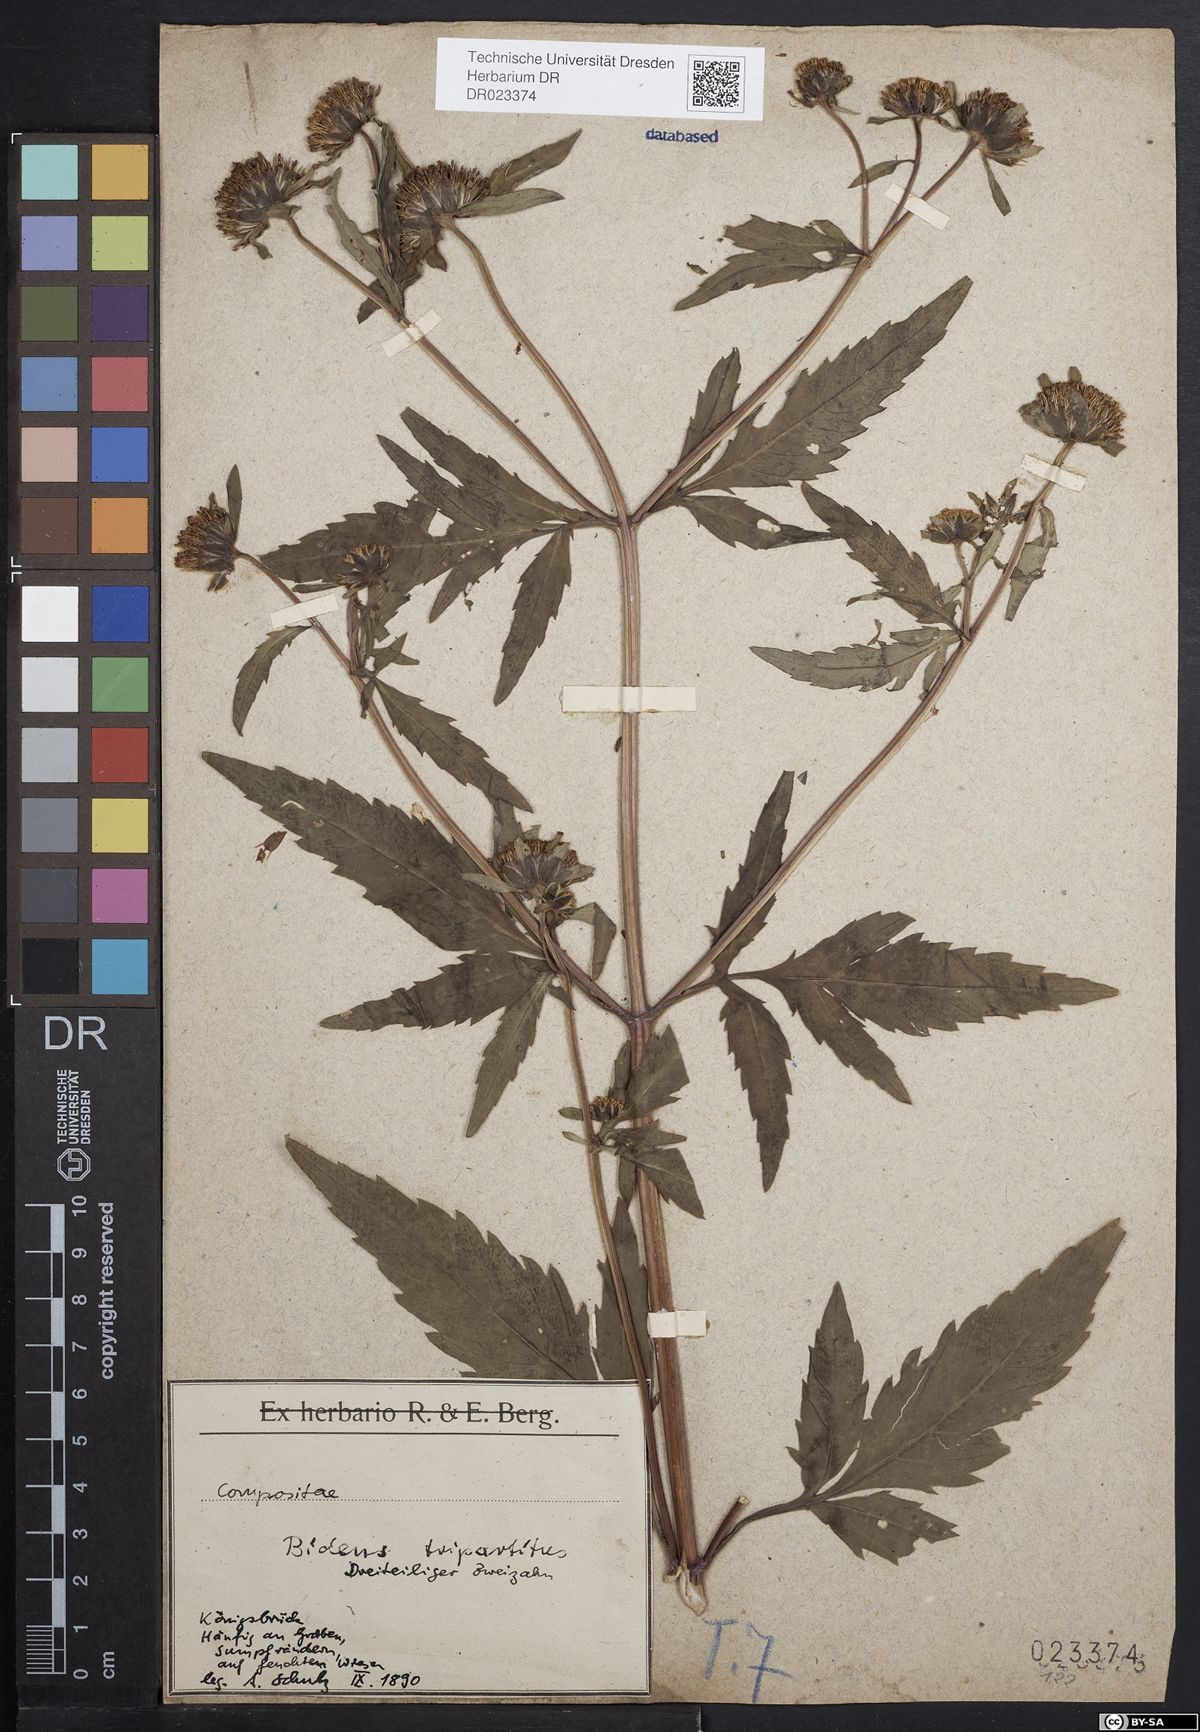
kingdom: Plantae
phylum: Tracheophyta
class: Magnoliopsida
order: Asterales
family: Asteraceae
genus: Bidens
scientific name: Bidens tripartita
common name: Trifid bur-marigold
